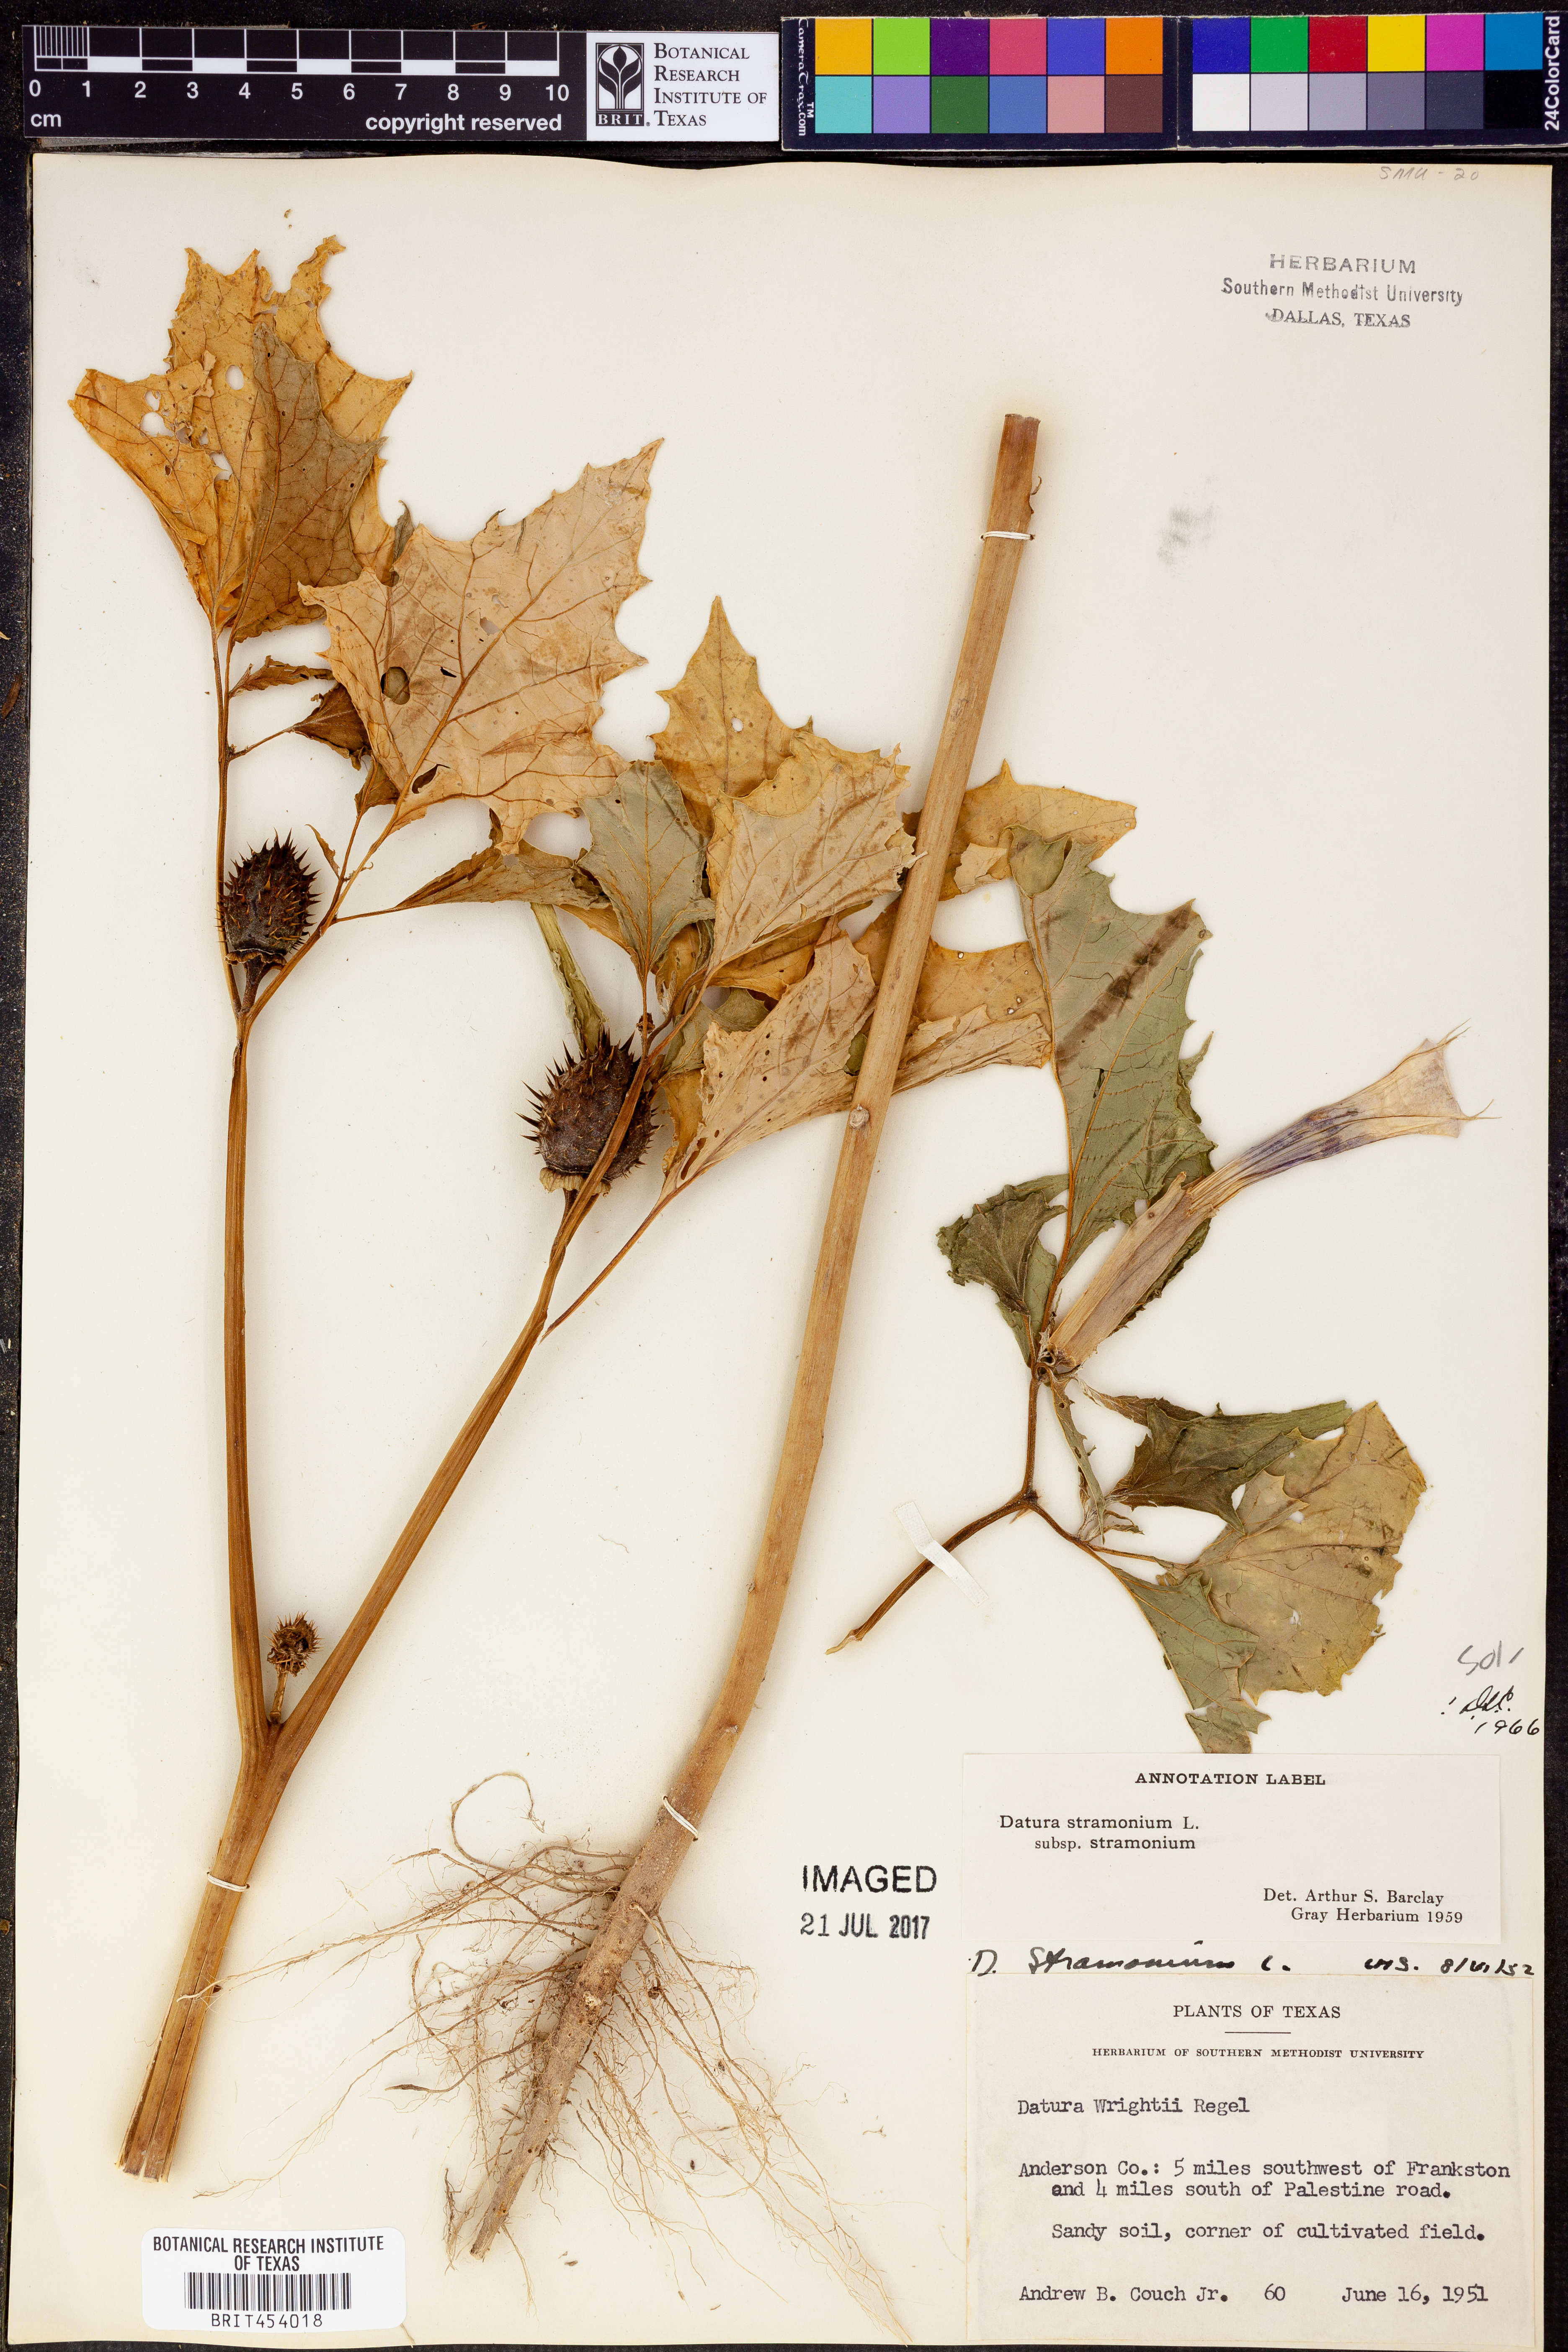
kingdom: Plantae
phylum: Tracheophyta
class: Magnoliopsida
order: Solanales
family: Solanaceae
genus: Datura
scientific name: Datura stramonium
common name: Thorn-apple
